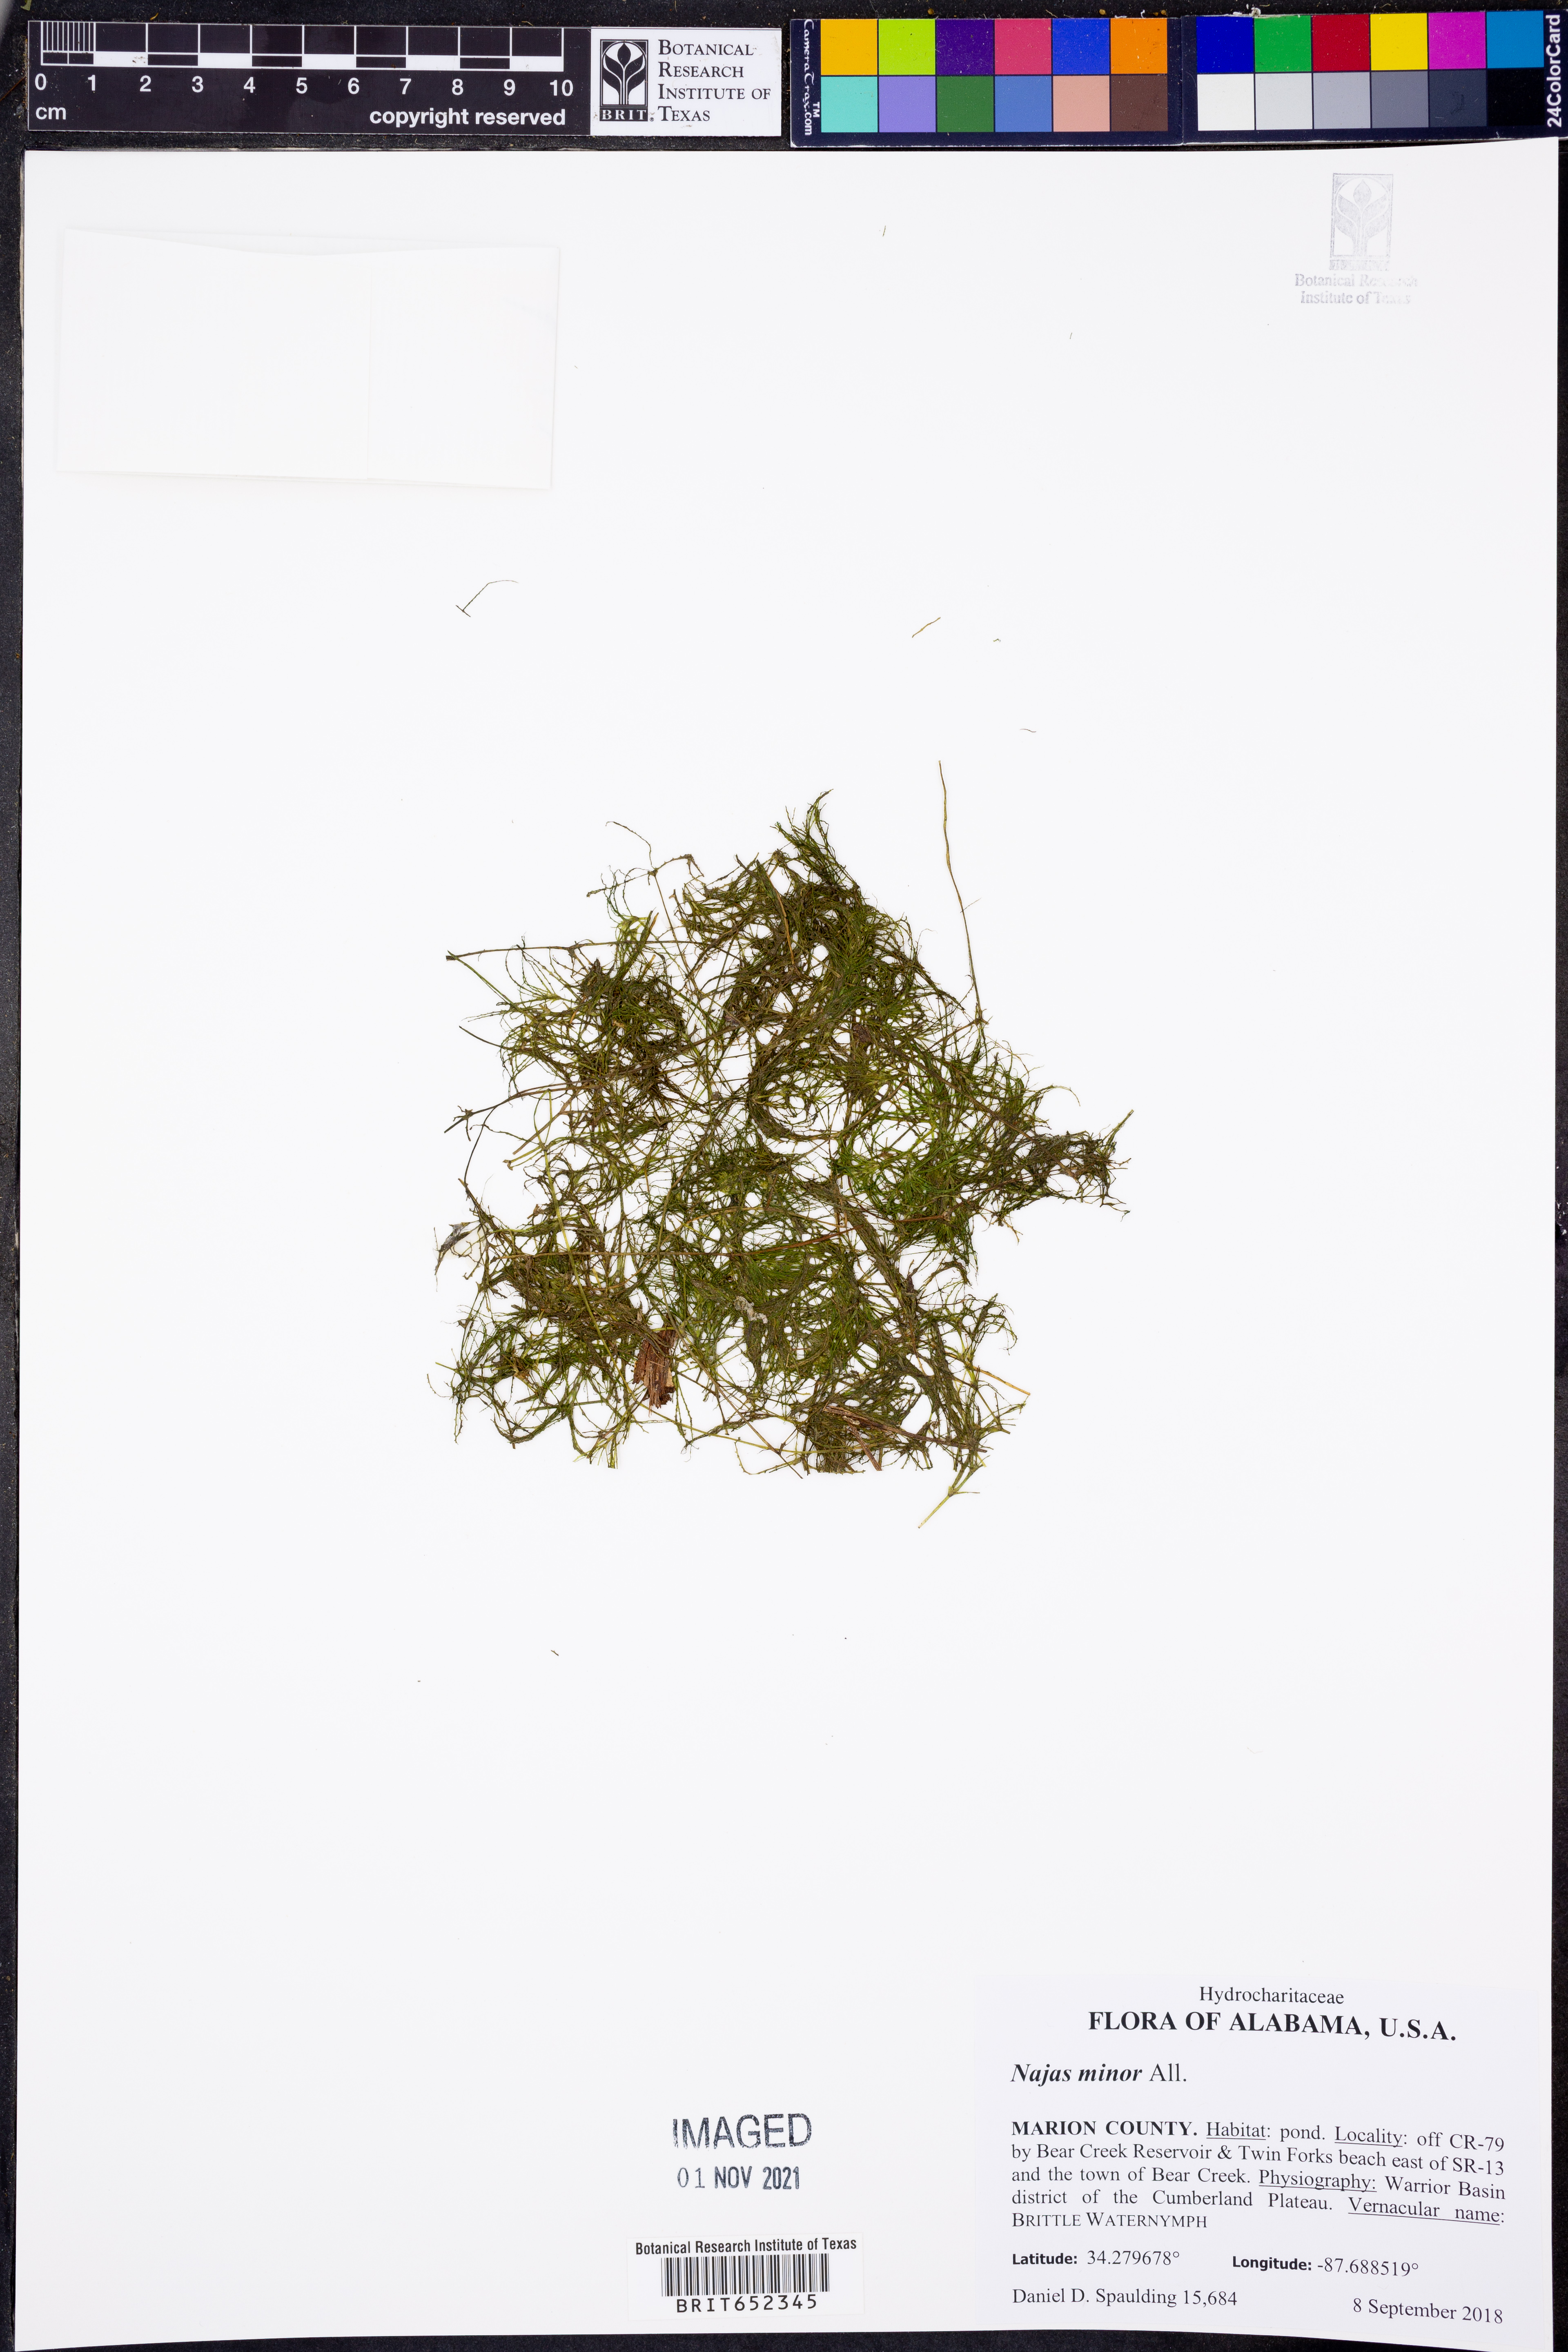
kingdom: Plantae
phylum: Tracheophyta
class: Liliopsida
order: Alismatales
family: Hydrocharitaceae
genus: Najas
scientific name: Najas minor
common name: Brittle naiad
